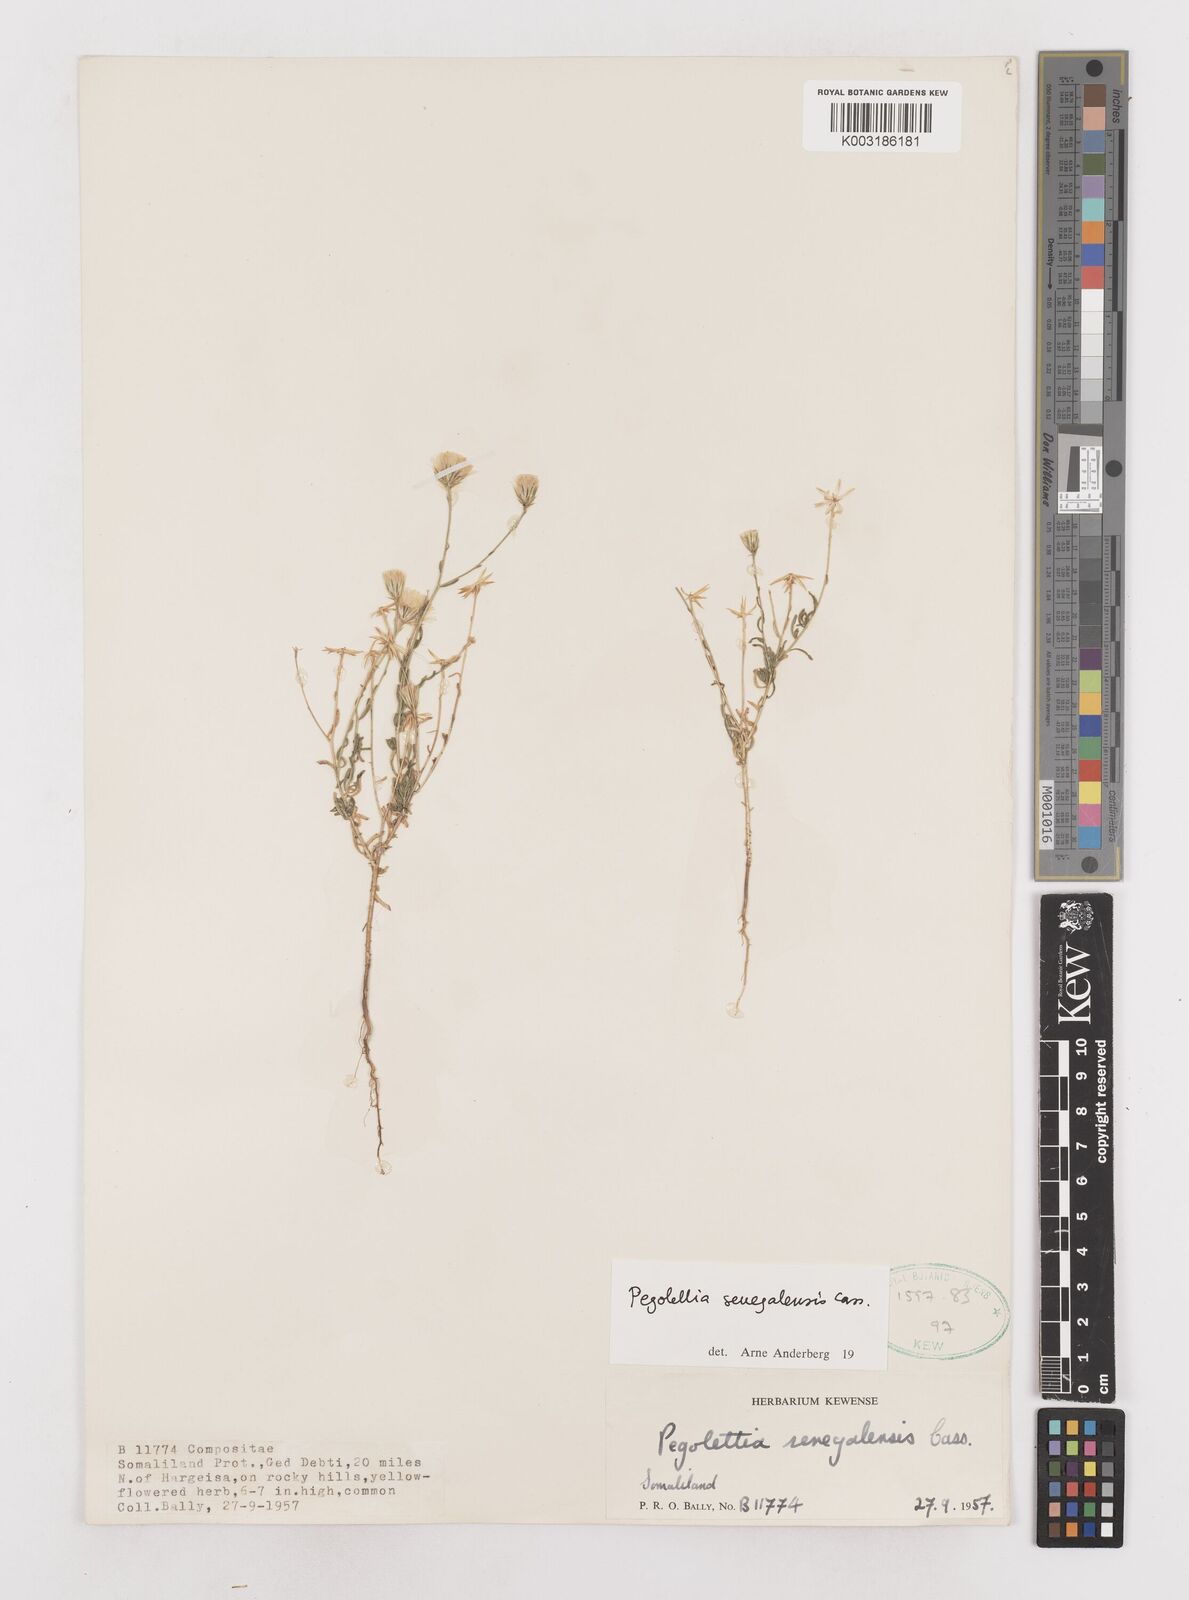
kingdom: Plantae
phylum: Tracheophyta
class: Magnoliopsida
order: Asterales
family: Asteraceae
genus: Pegolettia
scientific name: Pegolettia senegalensis
